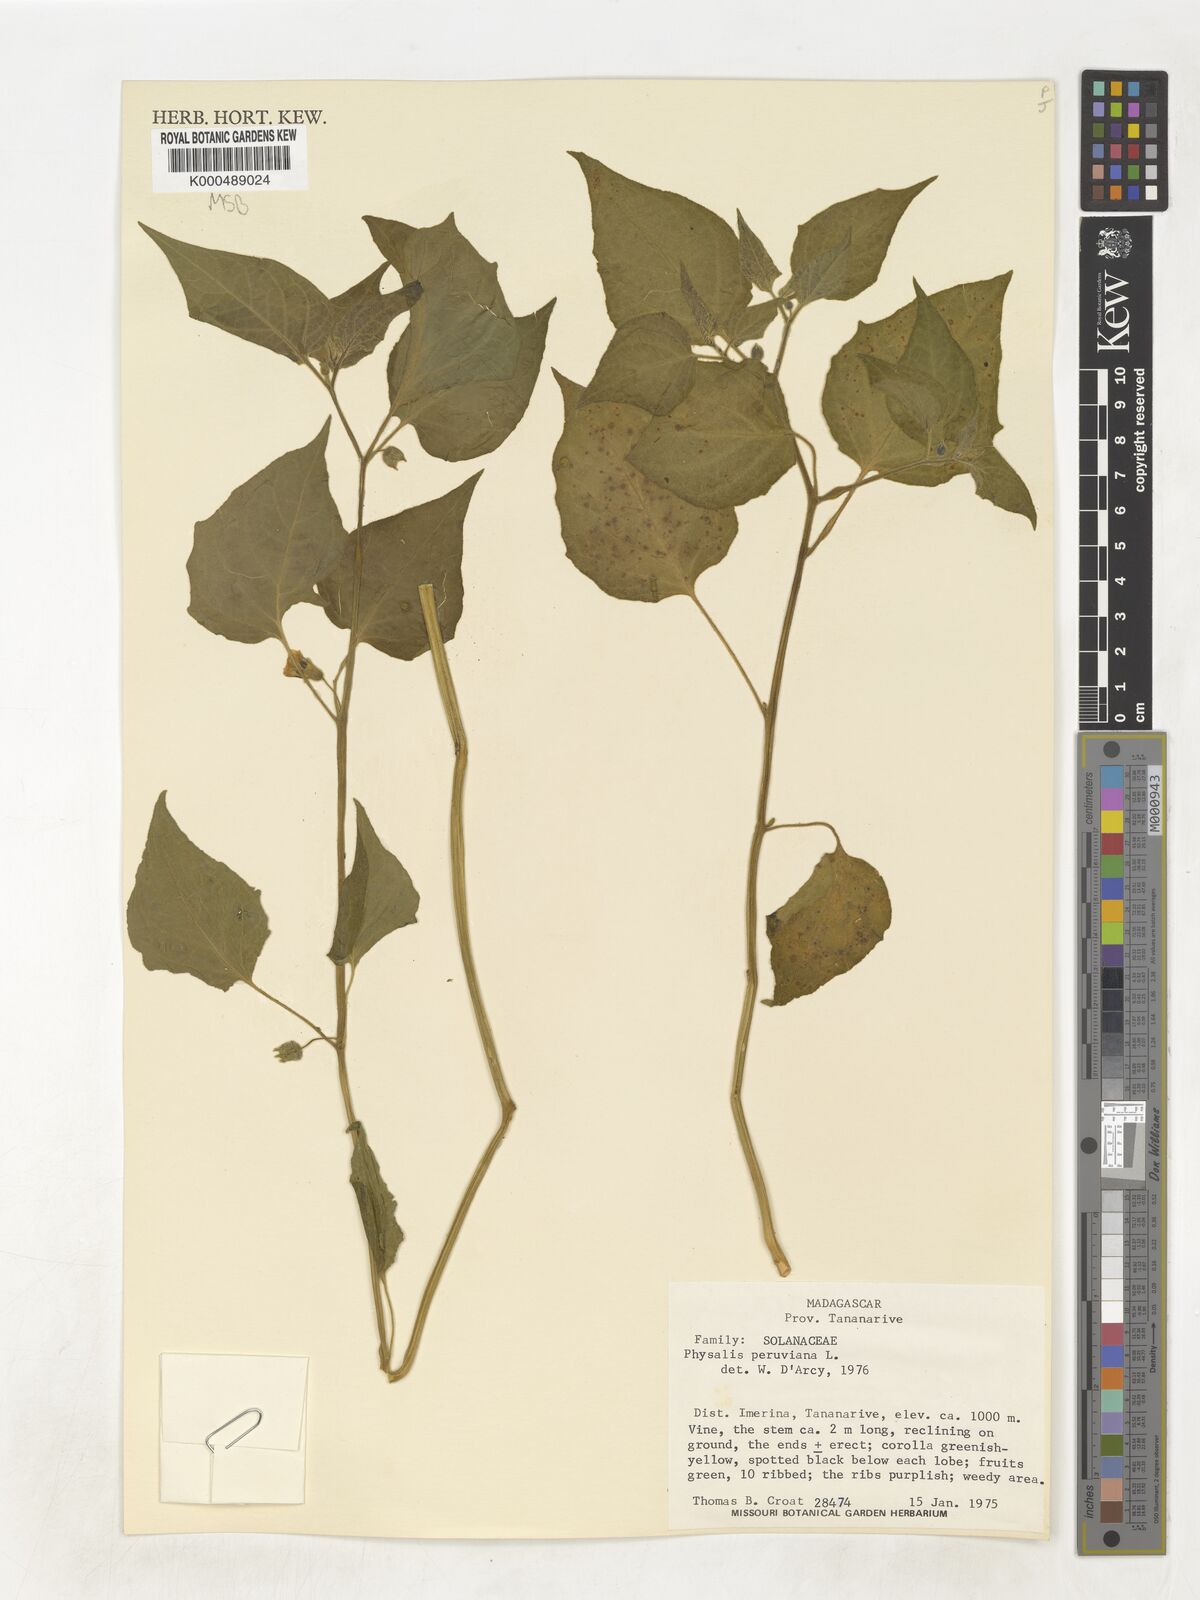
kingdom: Plantae
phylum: Tracheophyta
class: Magnoliopsida
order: Solanales
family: Solanaceae
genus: Physalis
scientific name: Physalis peruviana
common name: Cape-gooseberry
